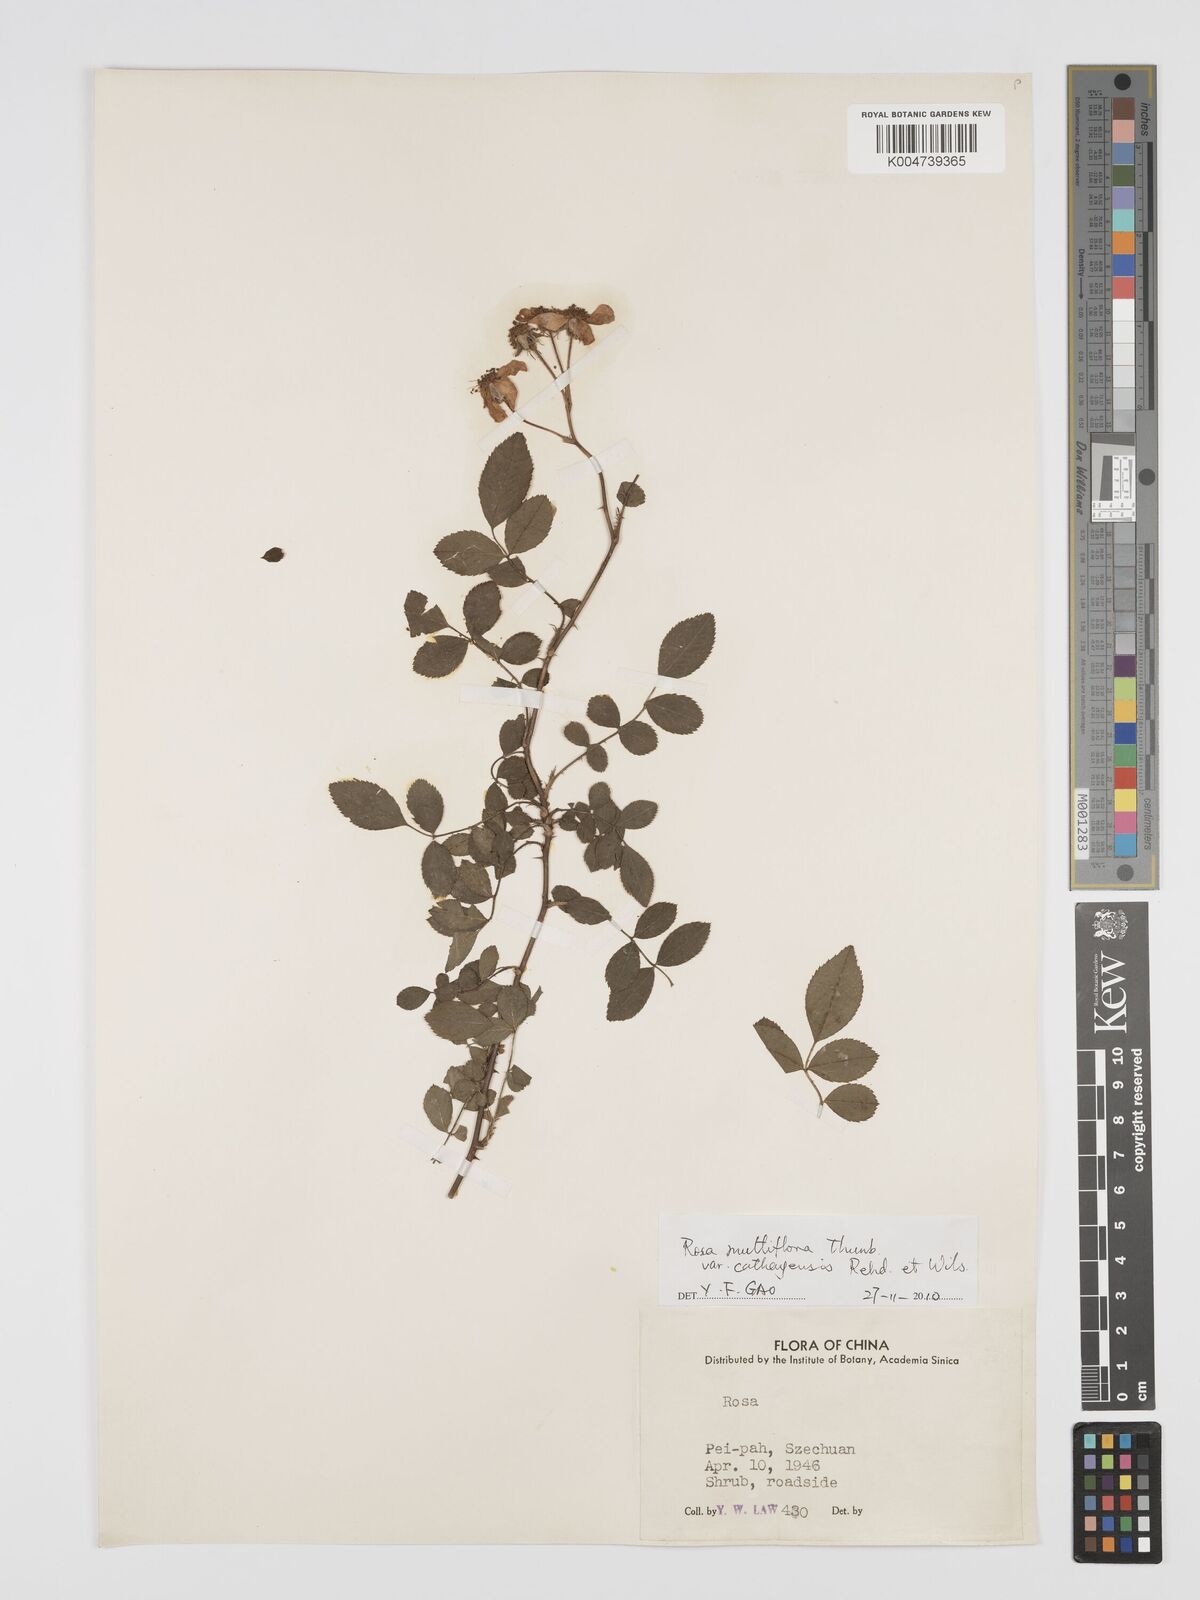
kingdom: Plantae
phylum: Tracheophyta
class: Magnoliopsida
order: Rosales
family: Rosaceae
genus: Rosa
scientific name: Rosa
